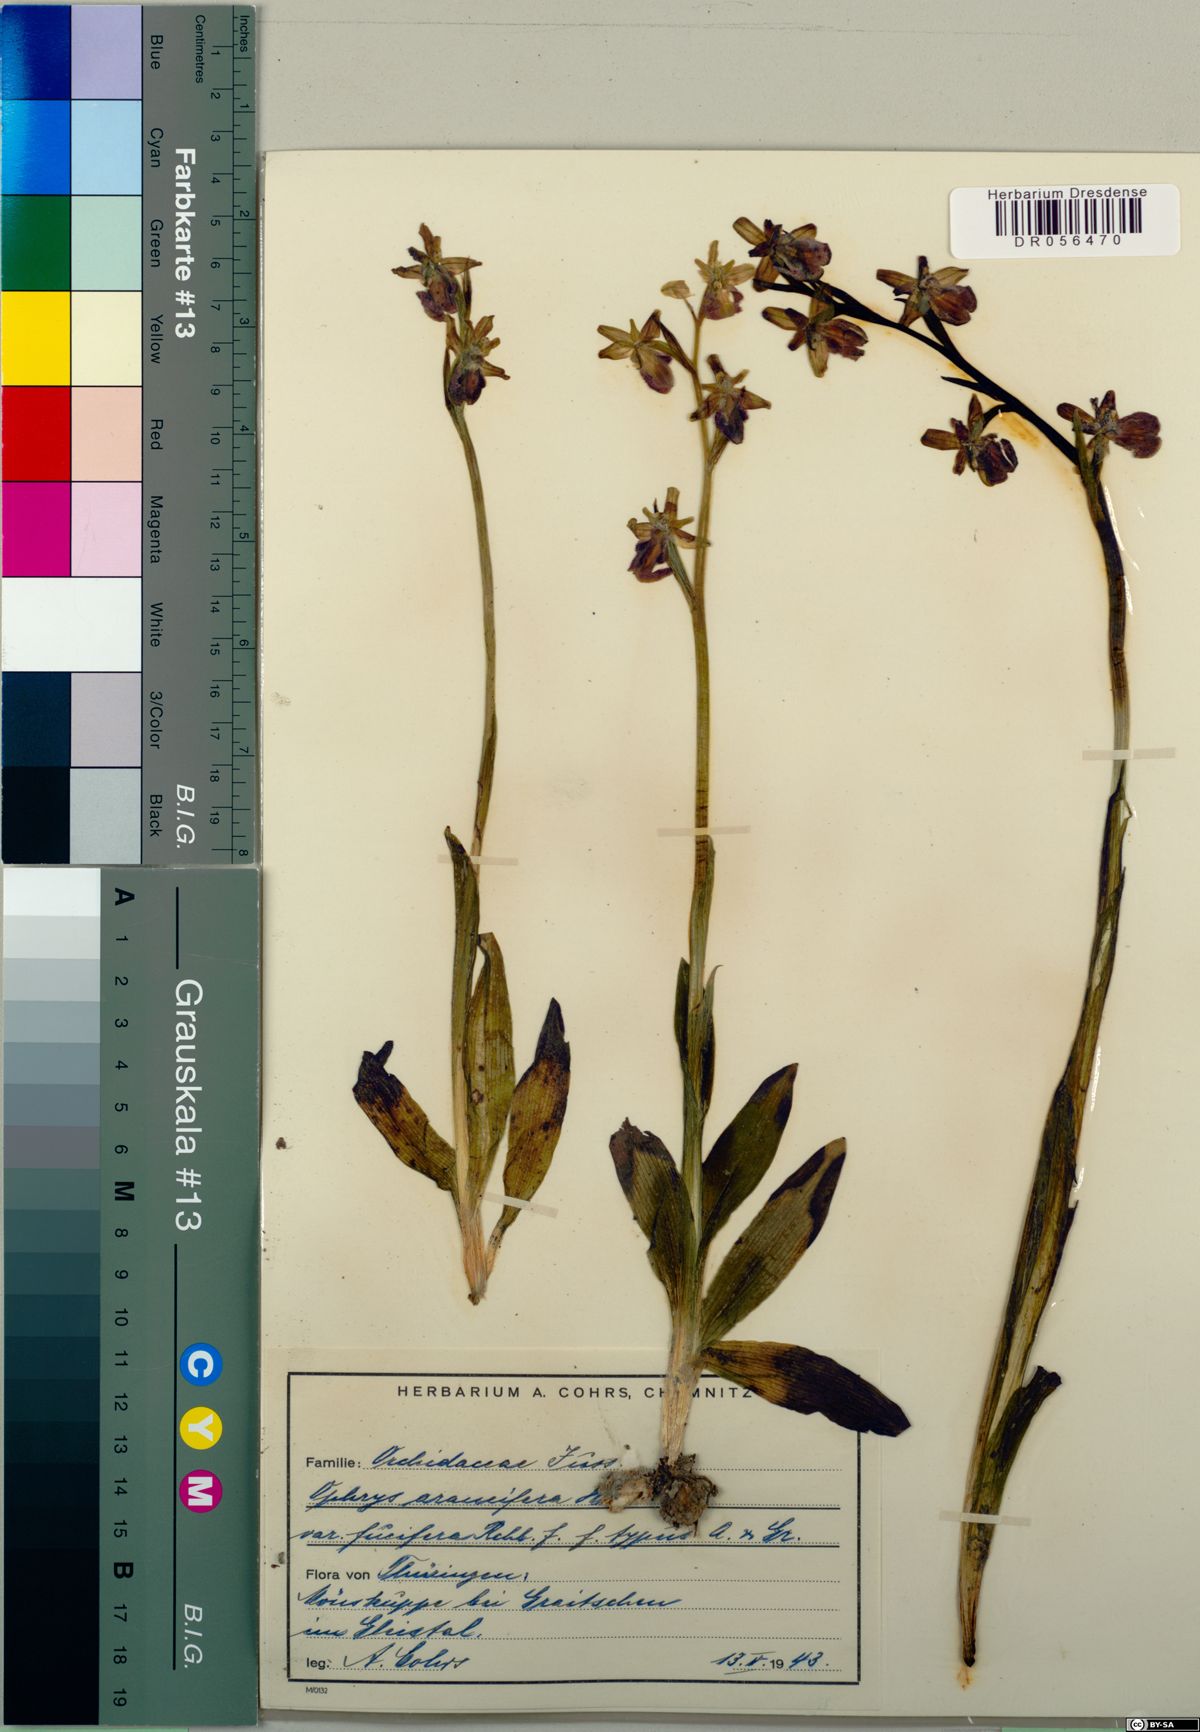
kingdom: Plantae
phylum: Tracheophyta
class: Liliopsida
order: Asparagales
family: Orchidaceae
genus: Ophrys
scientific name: Ophrys sphegodes
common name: Early spider-orchid
